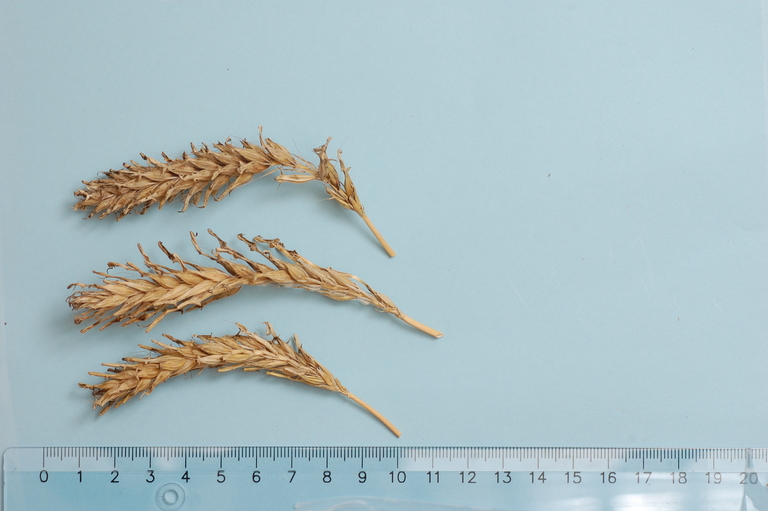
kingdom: Plantae
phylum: Tracheophyta
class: Liliopsida
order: Poales
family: Poaceae
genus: Hordeum
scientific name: Hordeum vulgare
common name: Common barley
